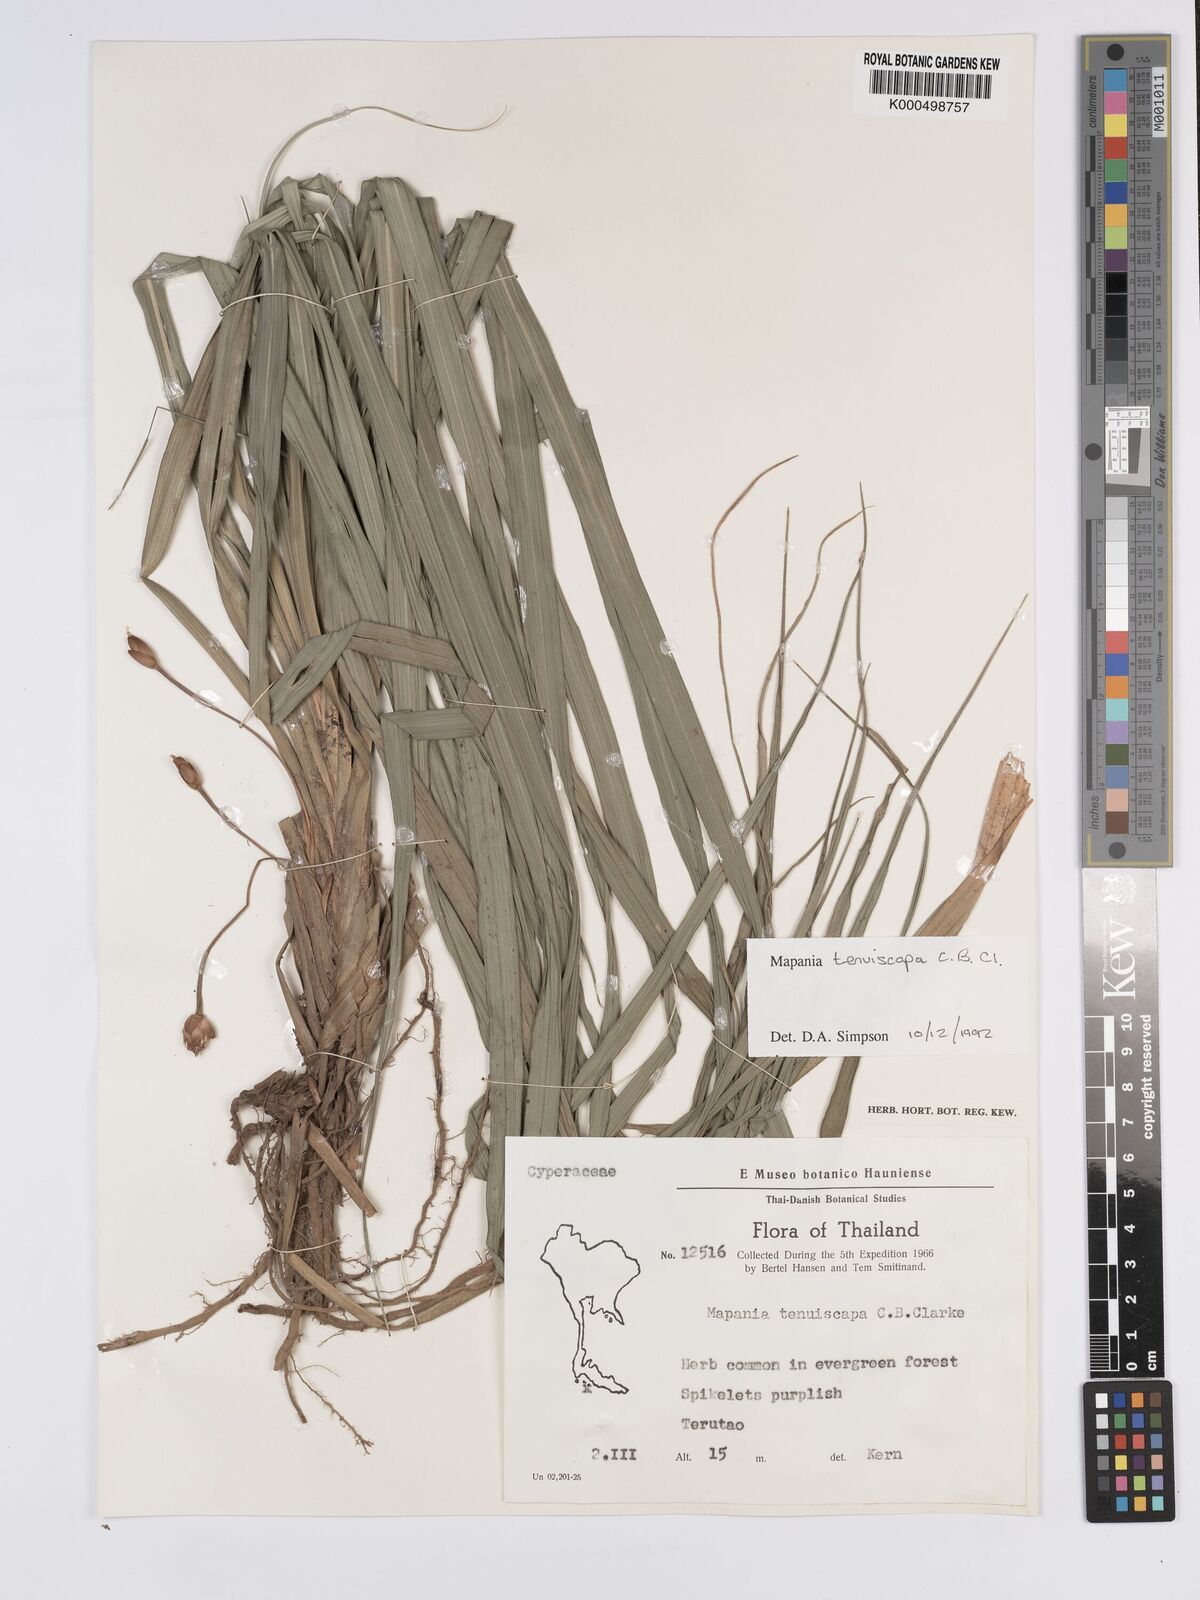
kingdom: Plantae
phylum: Tracheophyta
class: Liliopsida
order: Poales
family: Cyperaceae
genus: Mapania
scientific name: Mapania tenuiscapa
